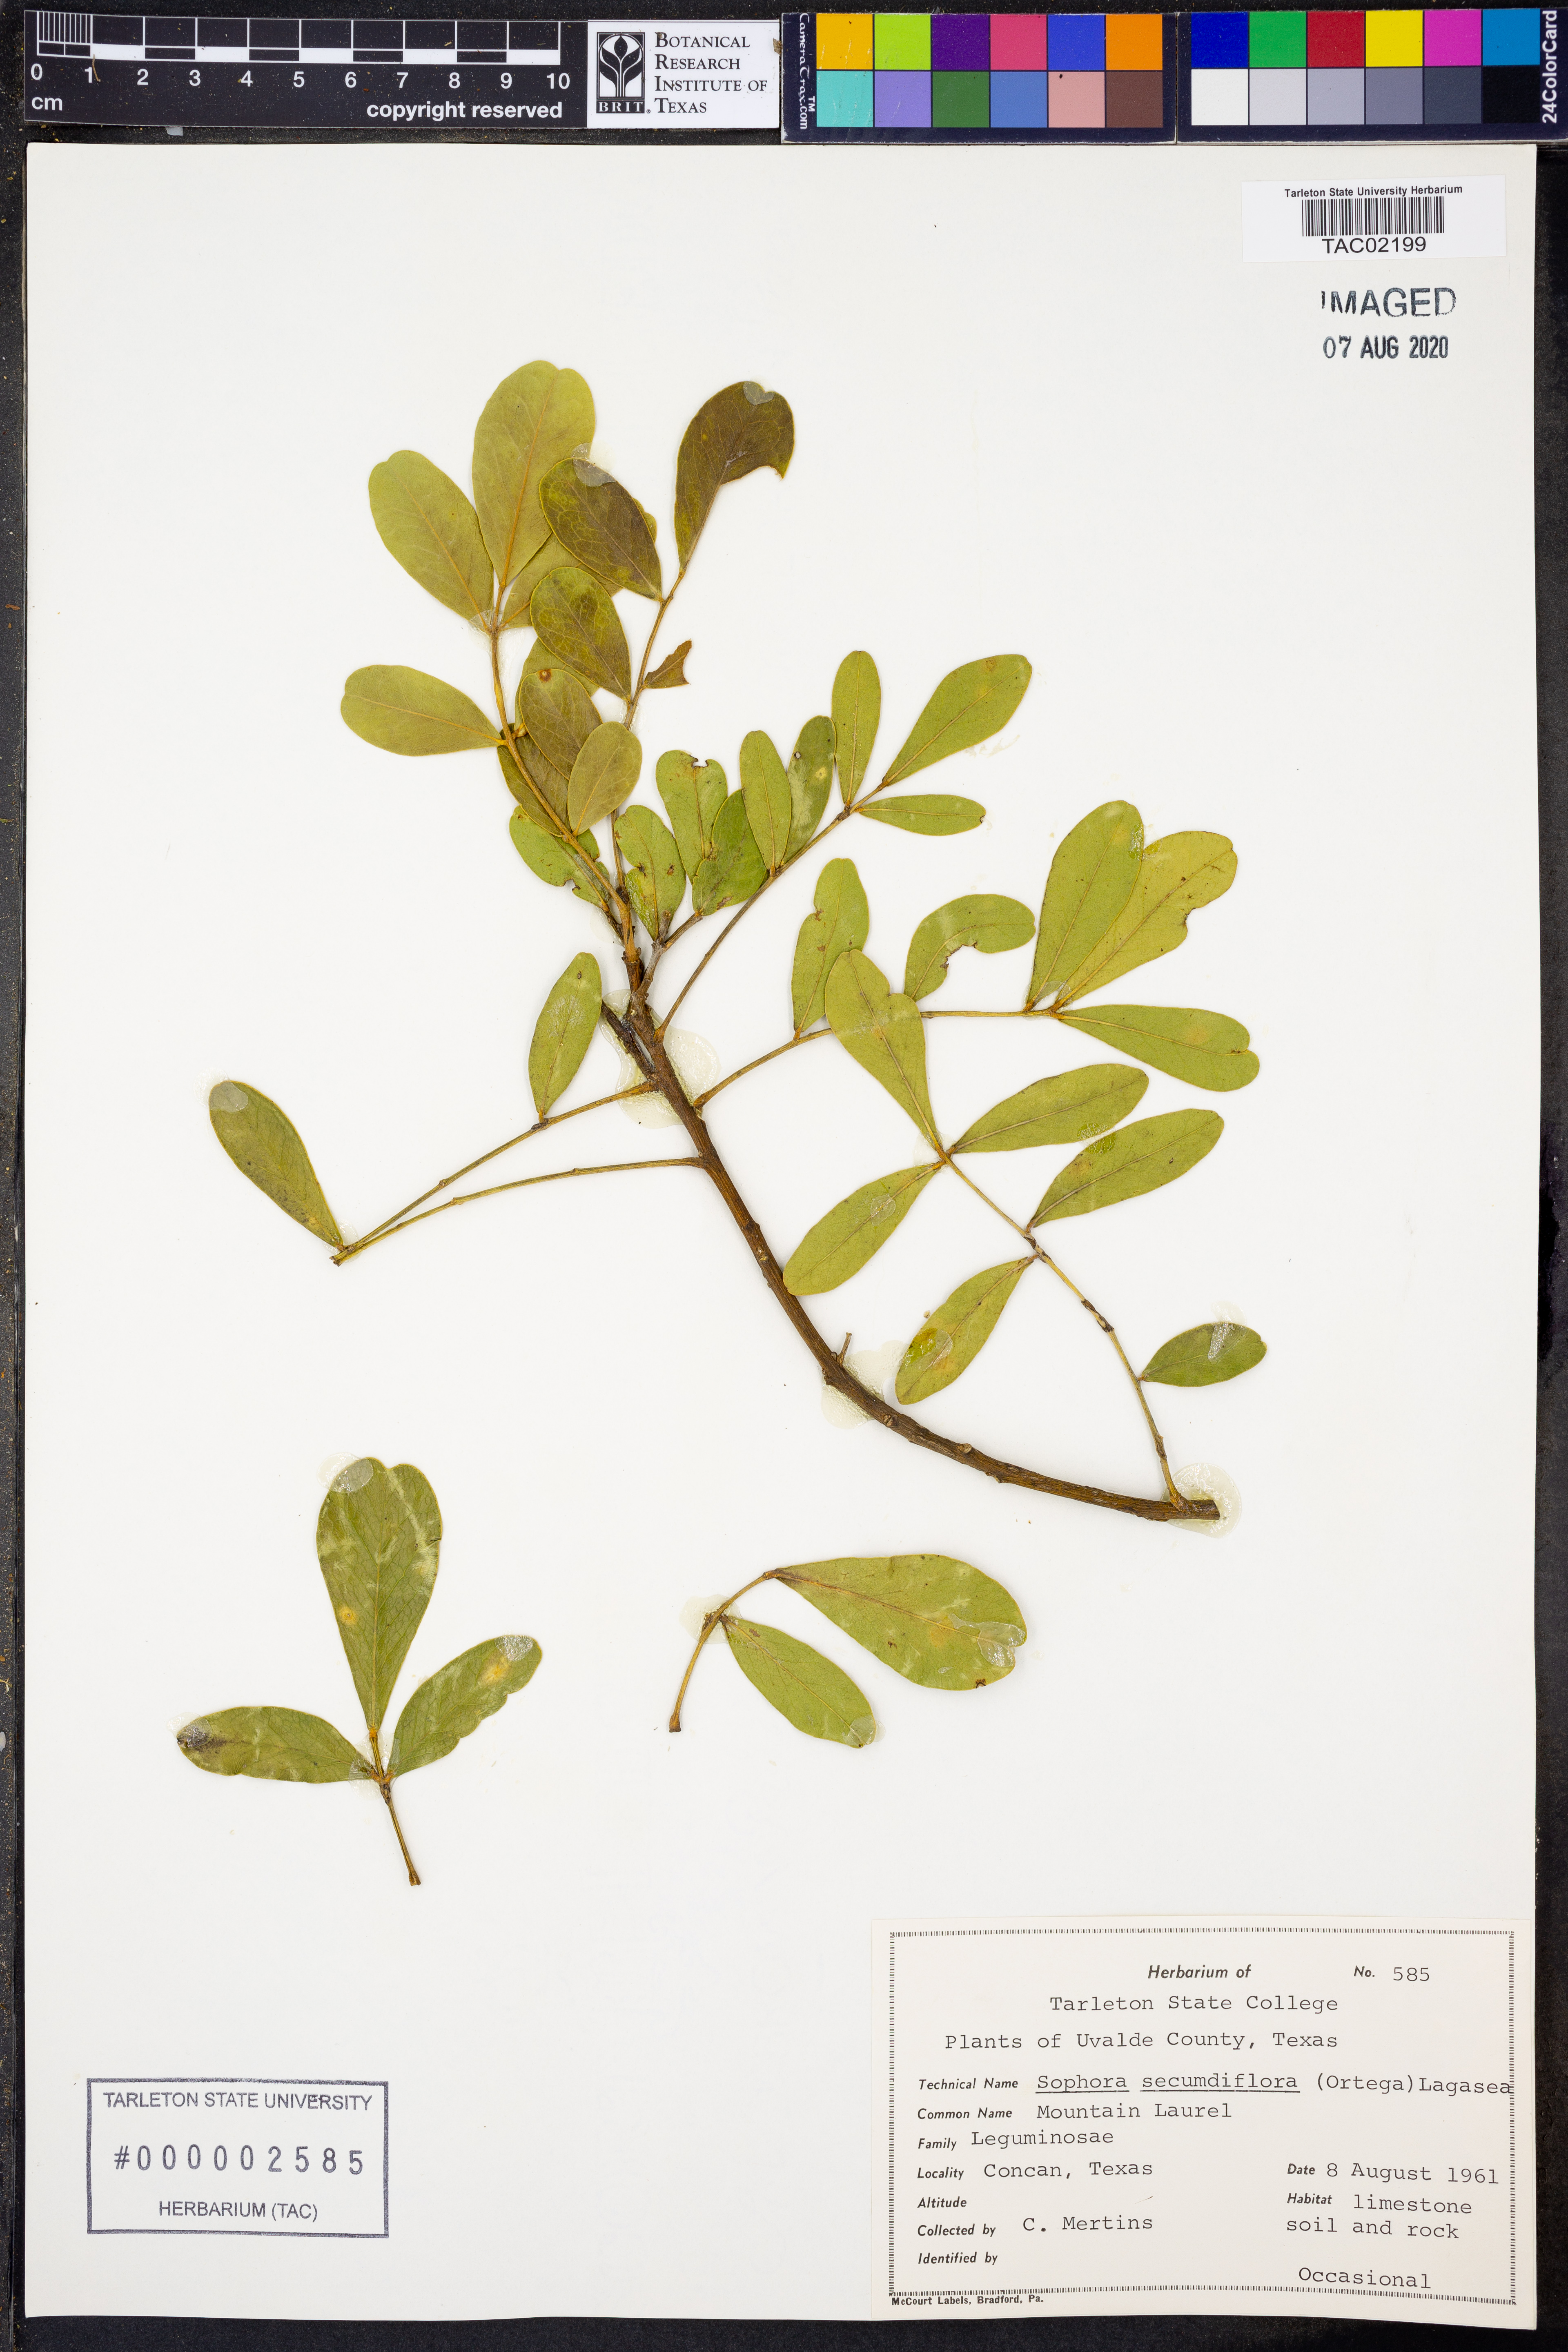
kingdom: Plantae
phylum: Tracheophyta
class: Magnoliopsida
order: Fabales
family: Fabaceae
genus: Dermatophyllum
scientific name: Dermatophyllum secundiflorum
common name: Texas-mountain-laurel
